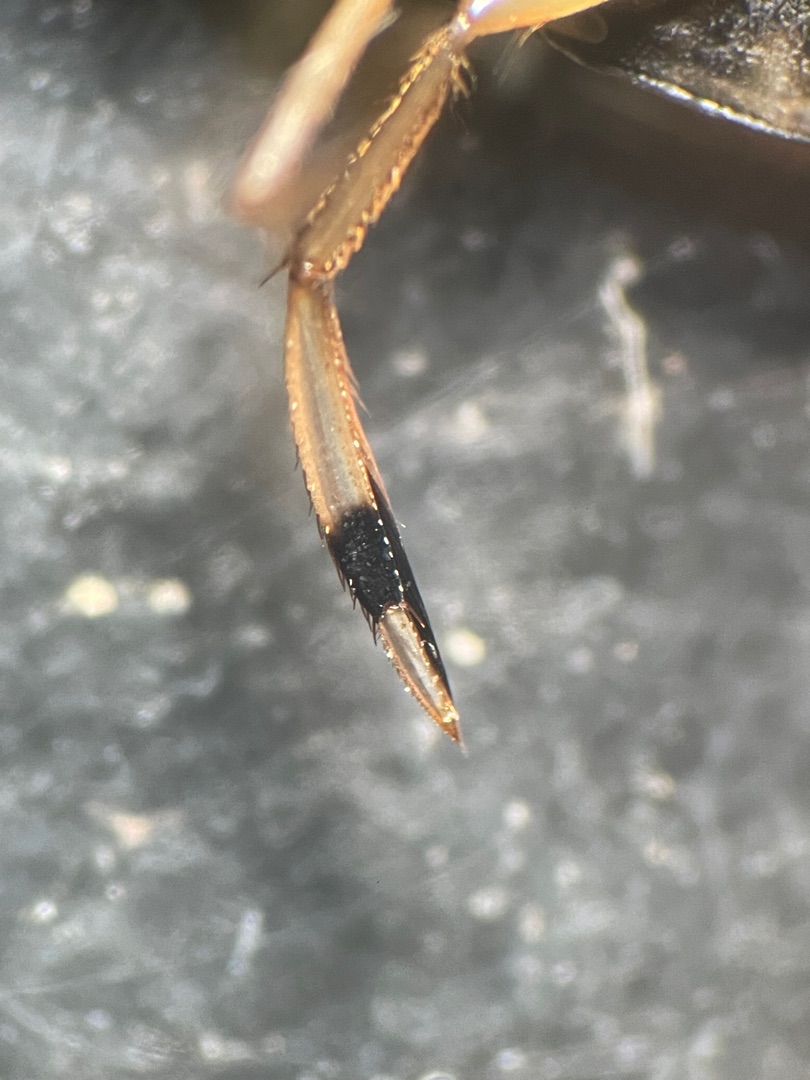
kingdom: Animalia
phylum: Arthropoda
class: Insecta
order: Hemiptera
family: Corixidae
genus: Callicorixa
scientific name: Callicorixa praeusta
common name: Sortbenet bugsvømmer
